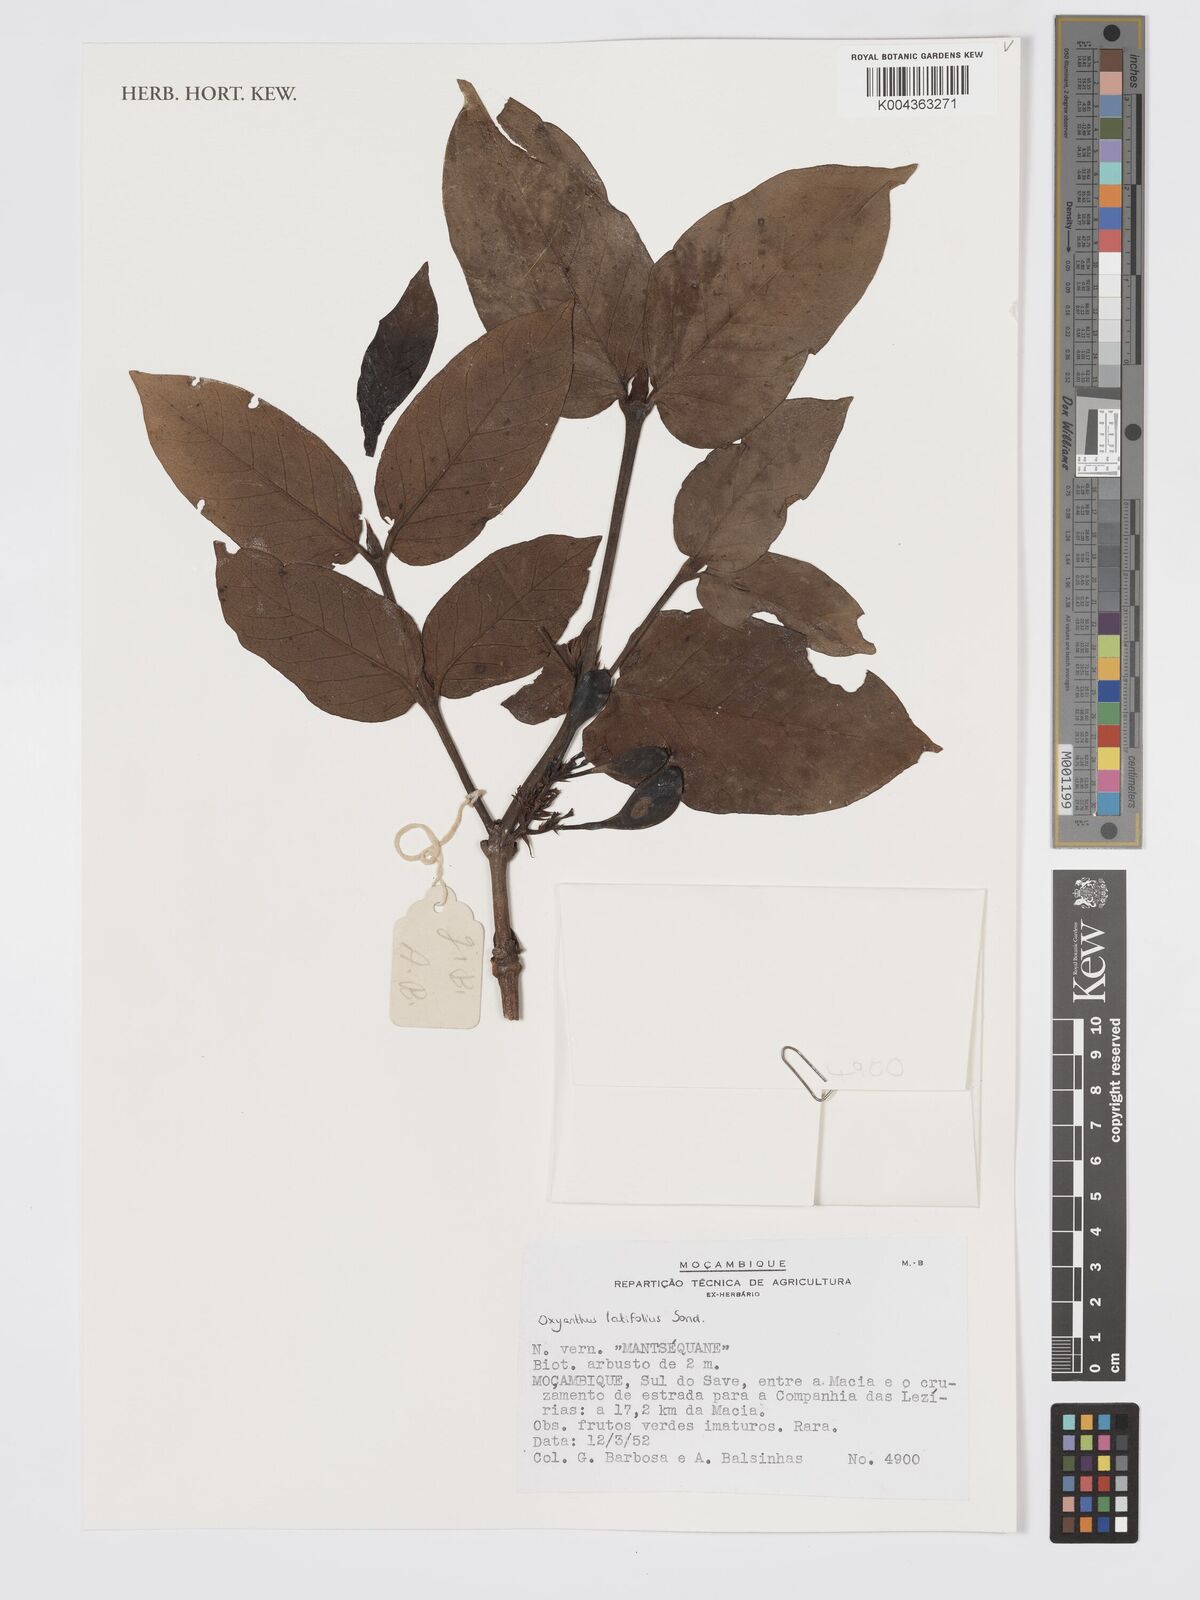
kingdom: Plantae
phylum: Tracheophyta
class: Magnoliopsida
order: Gentianales
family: Rubiaceae
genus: Oxyanthus
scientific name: Oxyanthus latifolius
